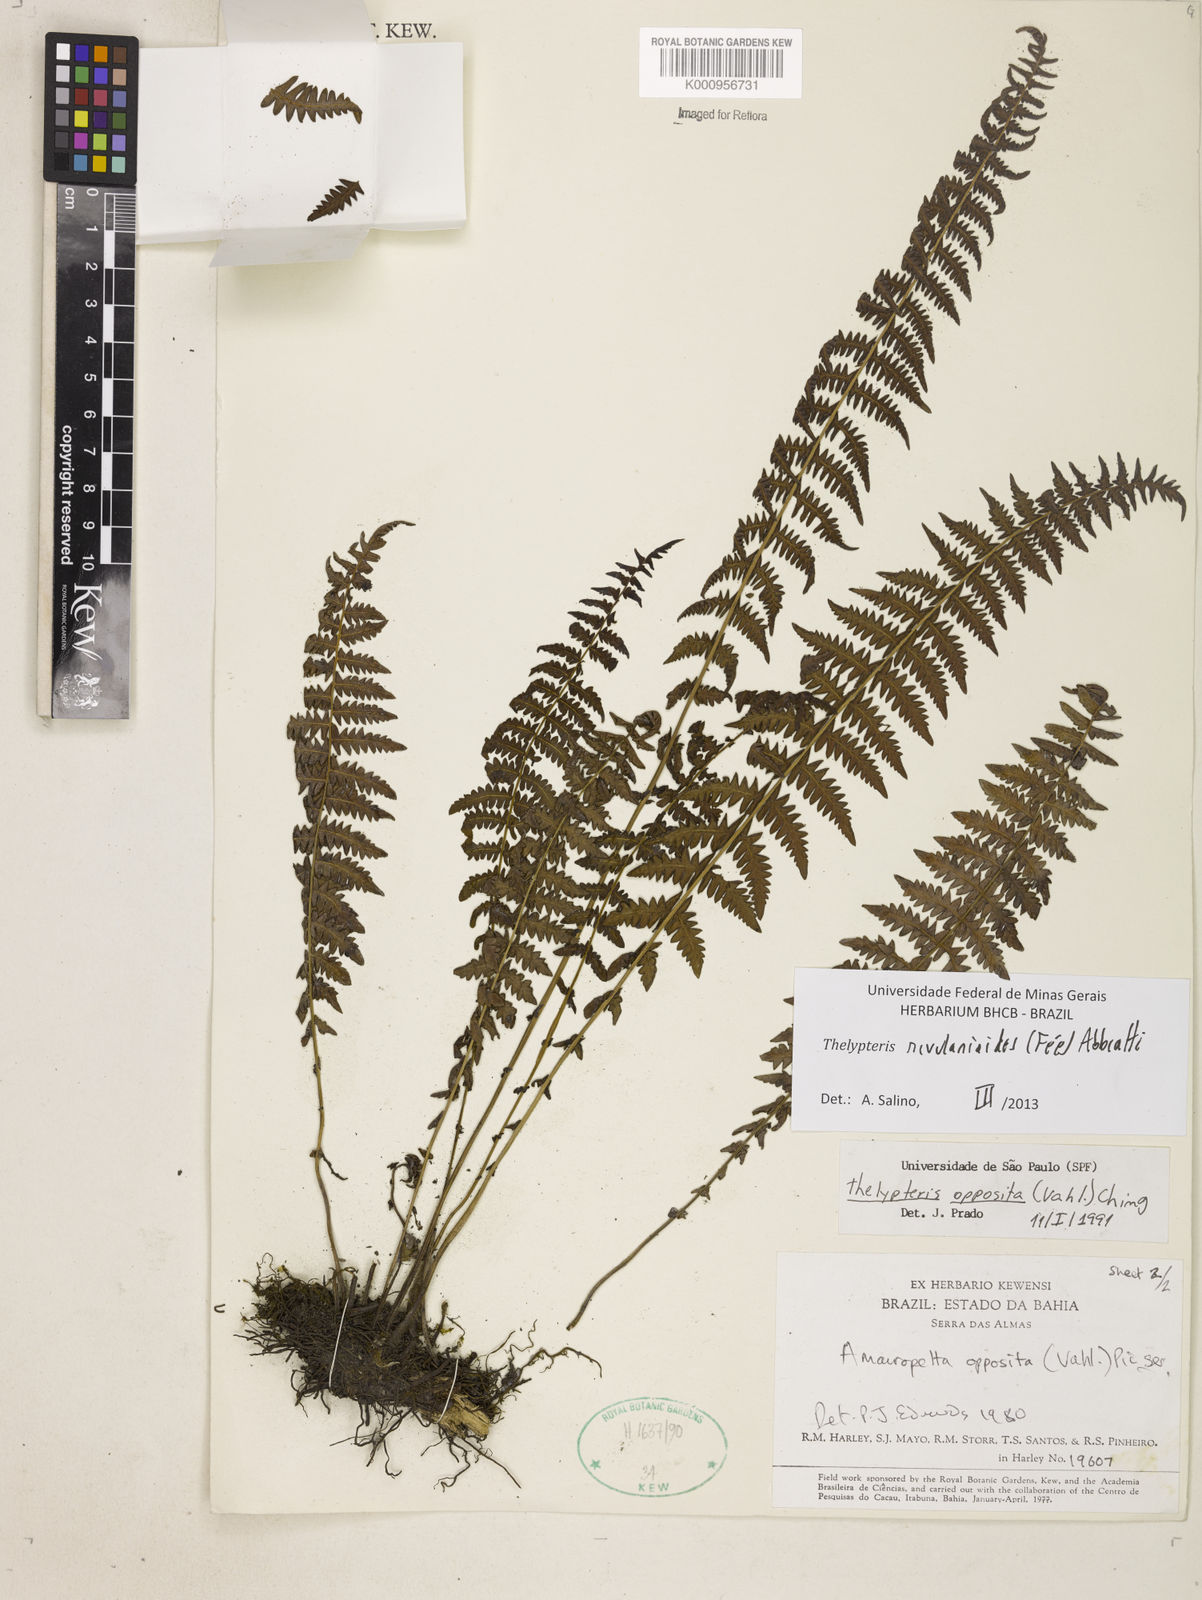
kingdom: Plantae
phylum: Tracheophyta
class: Polypodiopsida
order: Polypodiales
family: Thelypteridaceae
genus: Amauropelta
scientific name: Amauropelta rivularioides
